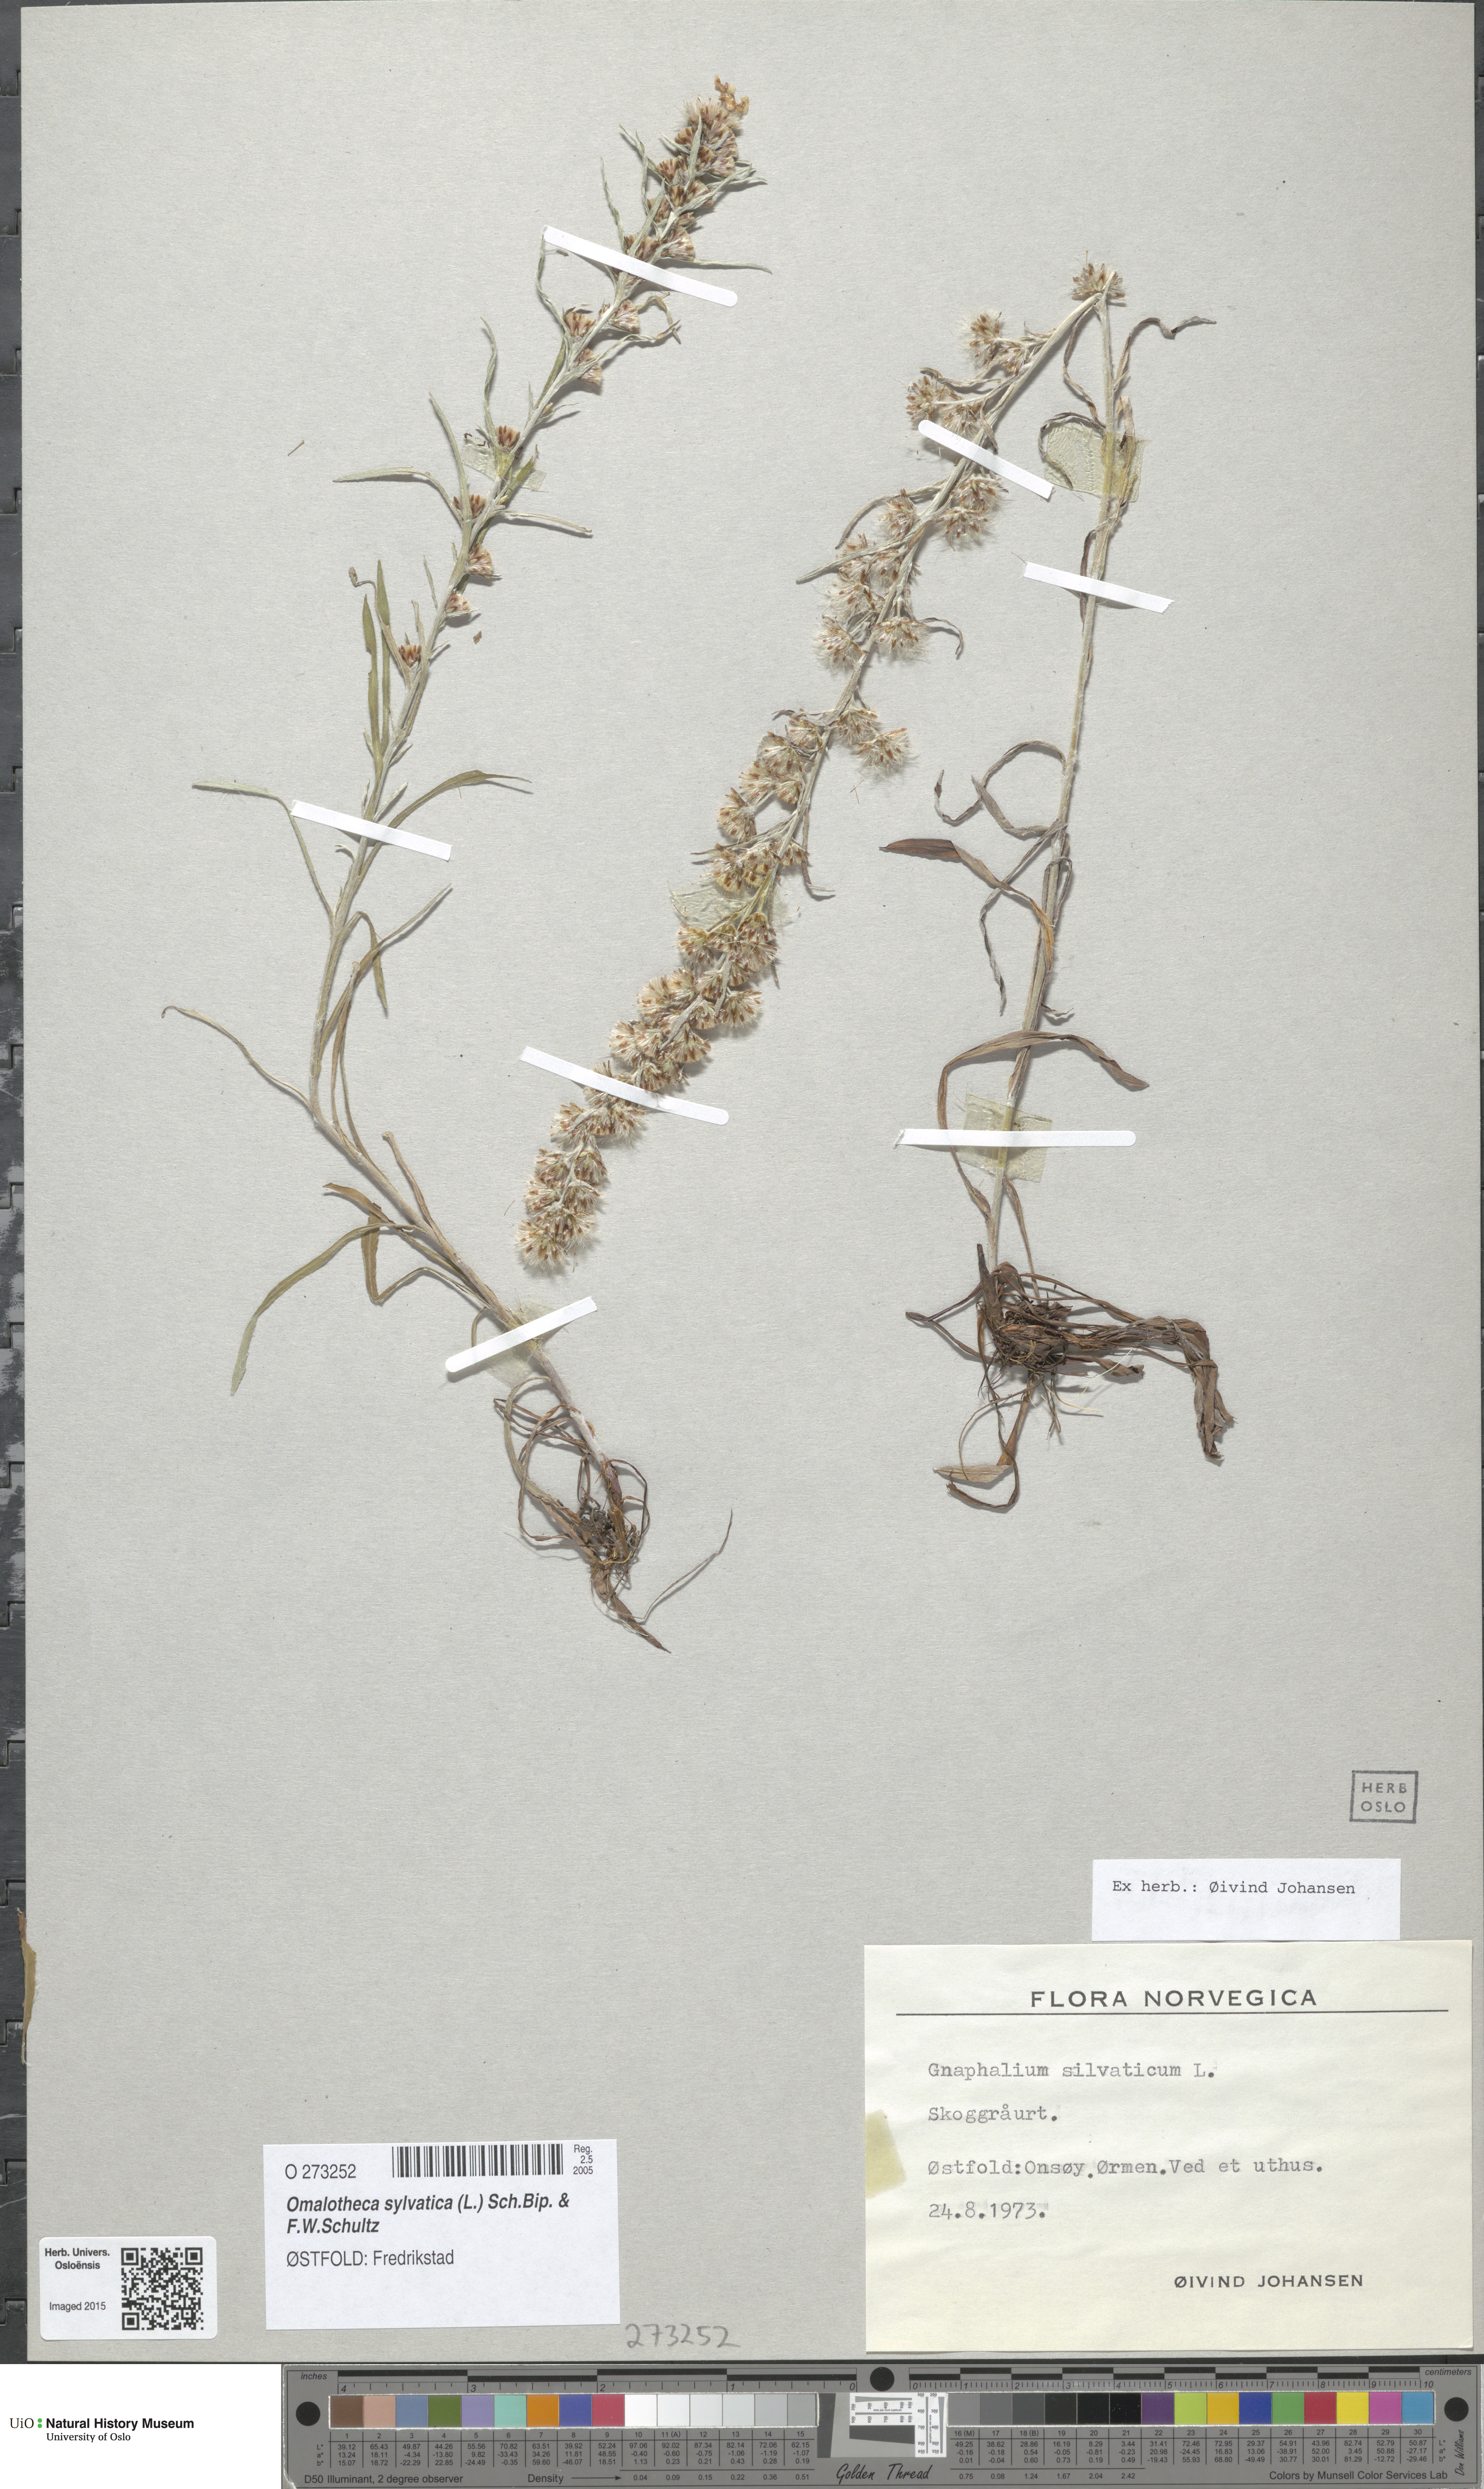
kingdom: Plantae
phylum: Tracheophyta
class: Magnoliopsida
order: Asterales
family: Asteraceae
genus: Omalotheca
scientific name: Omalotheca sylvatica
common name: Heath cudweed
